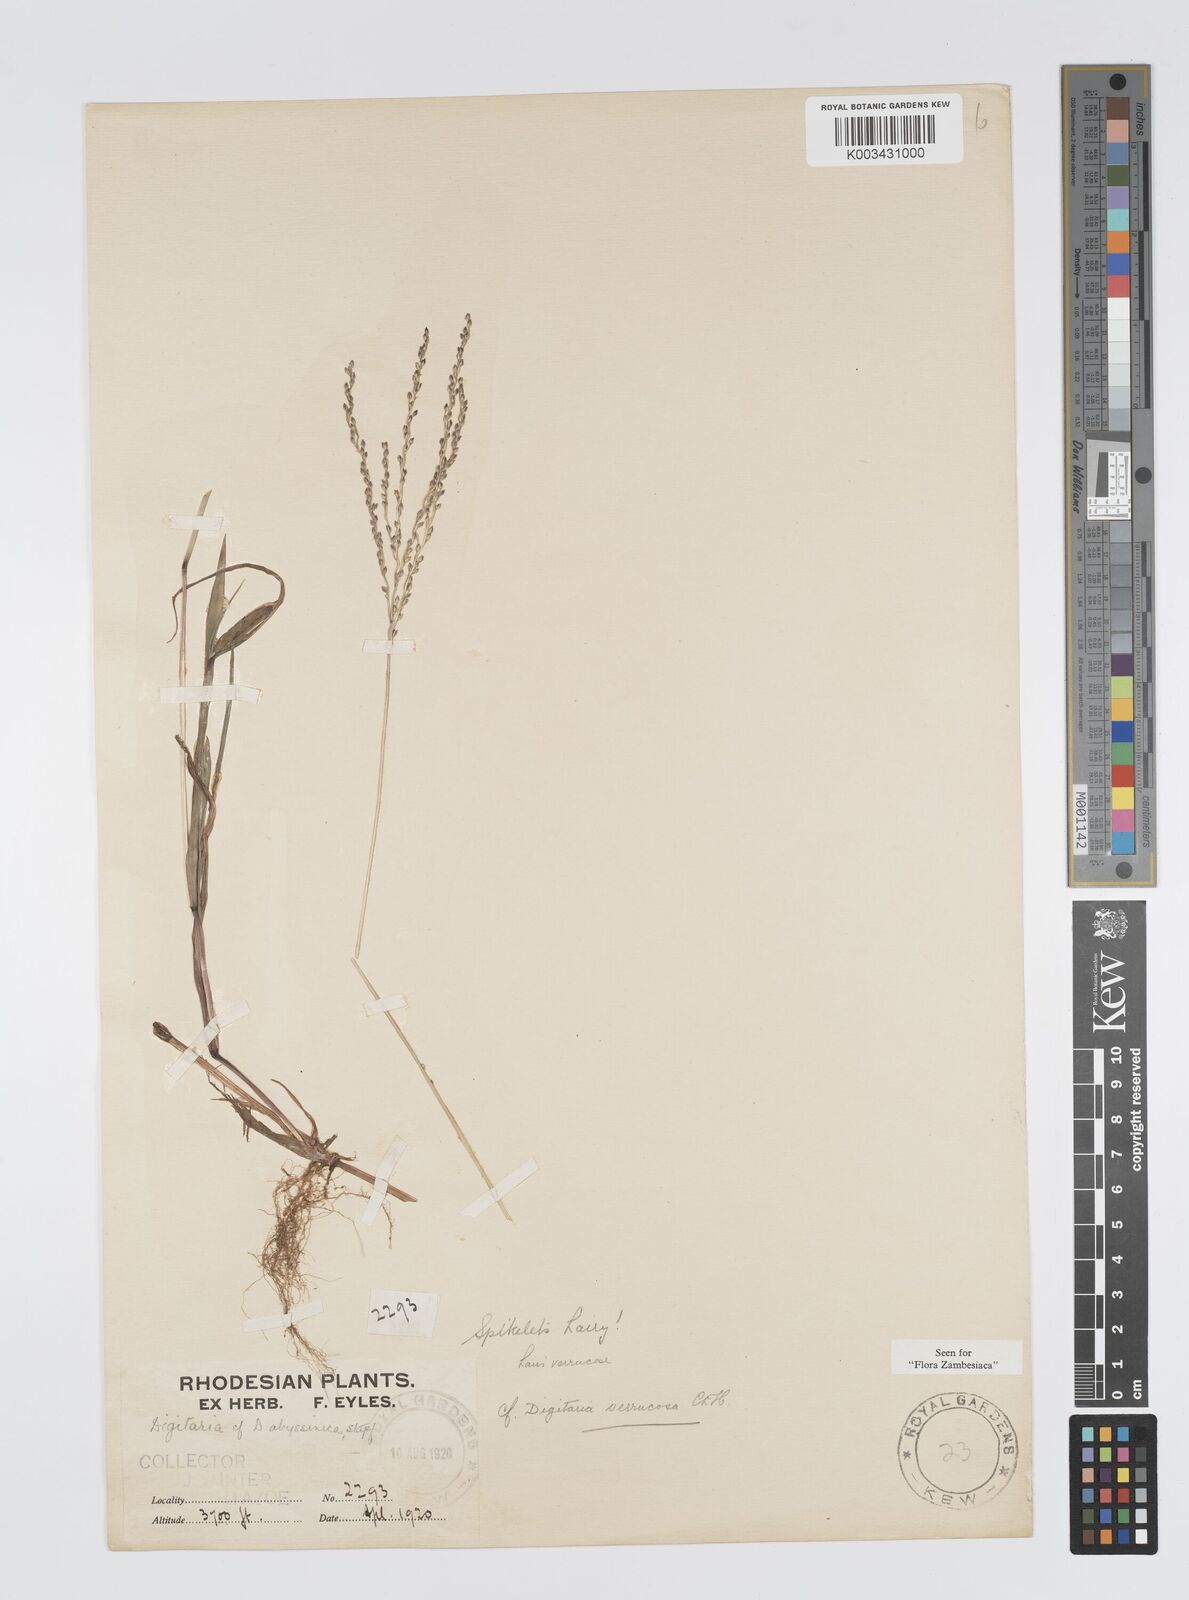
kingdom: Plantae
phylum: Tracheophyta
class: Liliopsida
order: Poales
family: Poaceae
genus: Digitaria
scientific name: Digitaria angolensis
